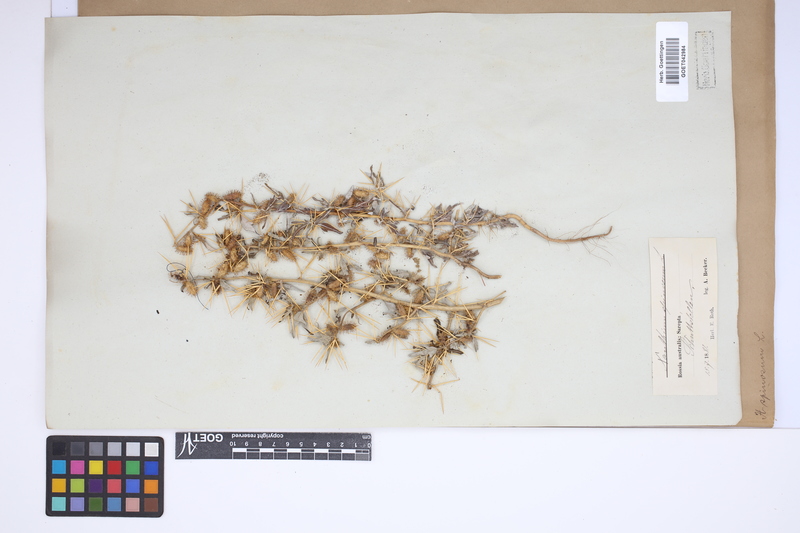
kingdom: Plantae
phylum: Tracheophyta
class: Magnoliopsida
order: Asterales
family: Asteraceae
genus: Xanthium
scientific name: Xanthium spinosum
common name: Spiny cocklebur
